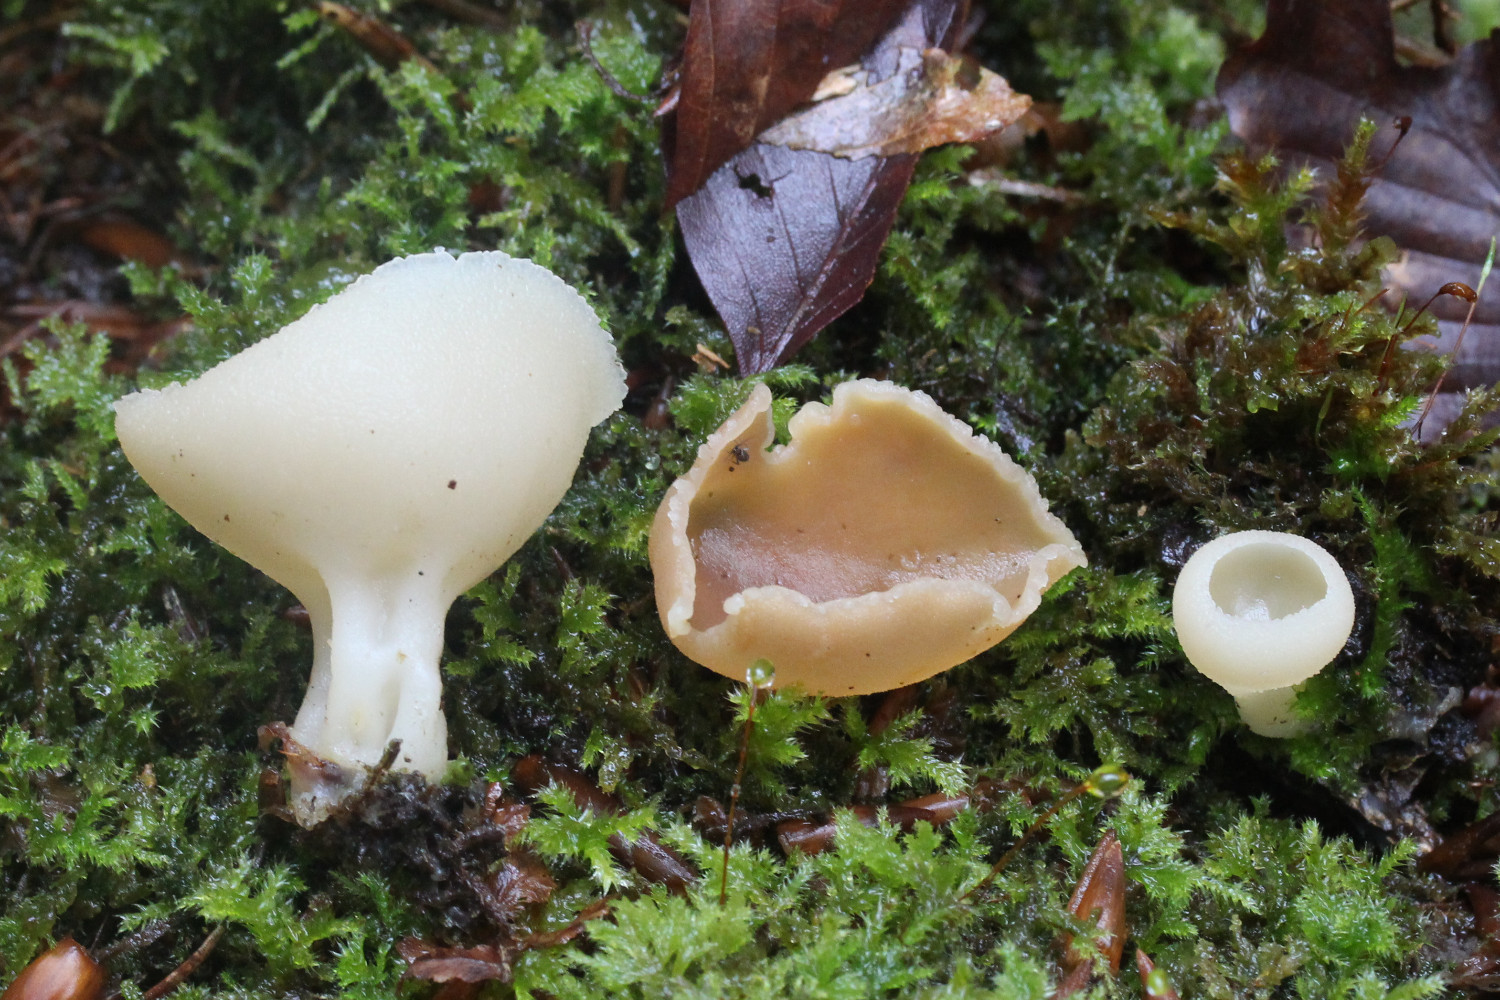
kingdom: Fungi
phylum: Ascomycota
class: Pezizomycetes
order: Pezizales
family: Pezizaceae
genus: Peziza
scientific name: Peziza varia
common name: Ved-bægersvamp
